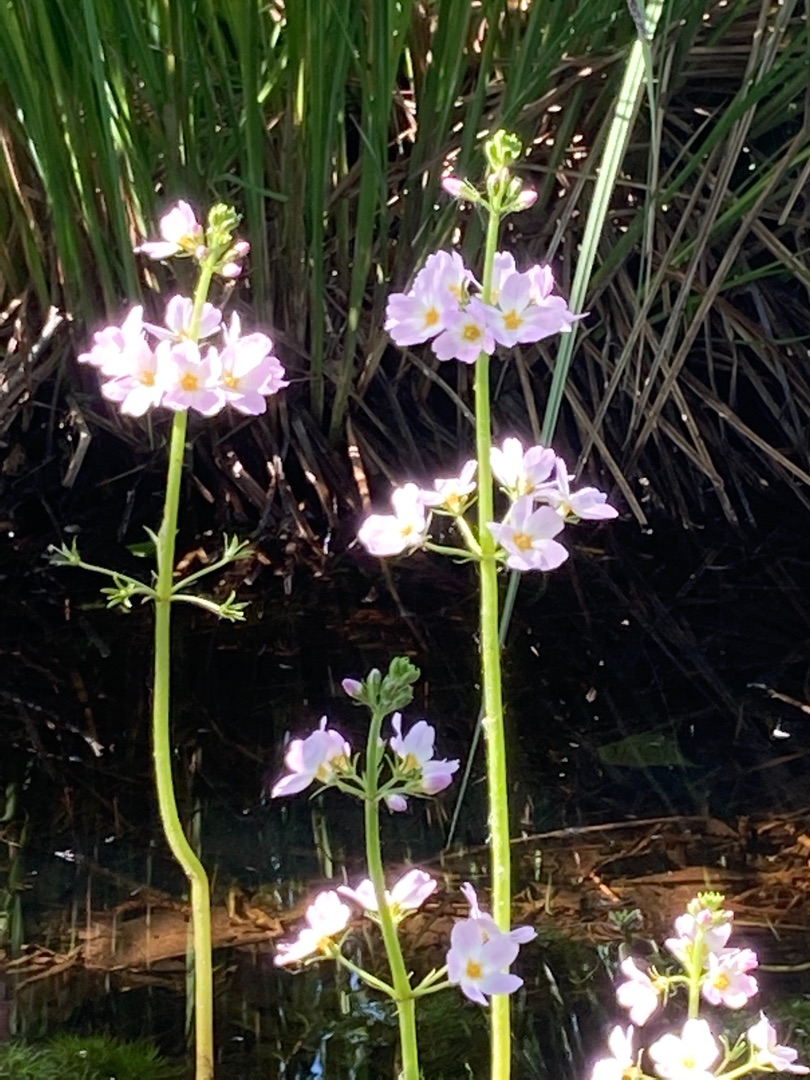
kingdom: Plantae
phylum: Tracheophyta
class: Magnoliopsida
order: Ericales
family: Primulaceae
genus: Hottonia
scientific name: Hottonia palustris
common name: Vandrøllike
